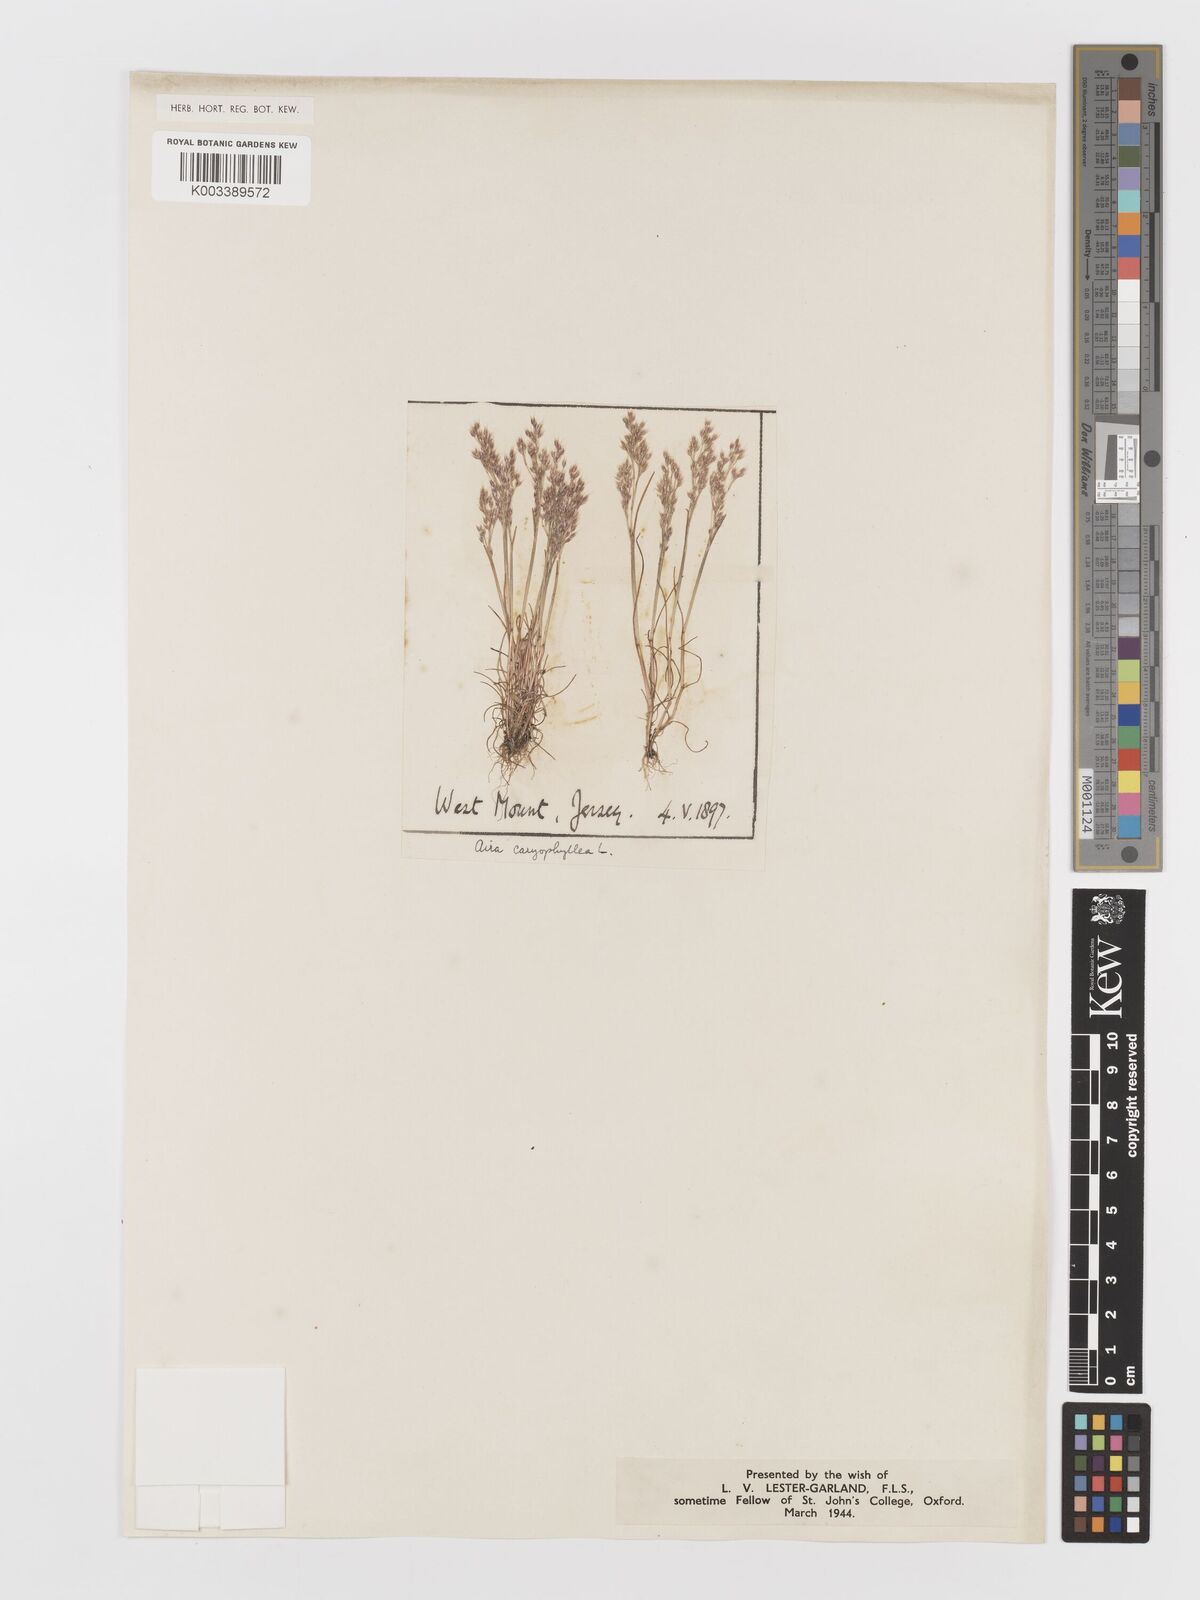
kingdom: Plantae
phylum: Tracheophyta
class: Liliopsida
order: Poales
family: Poaceae
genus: Aira
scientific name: Aira caryophyllea
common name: Silver hairgrass
